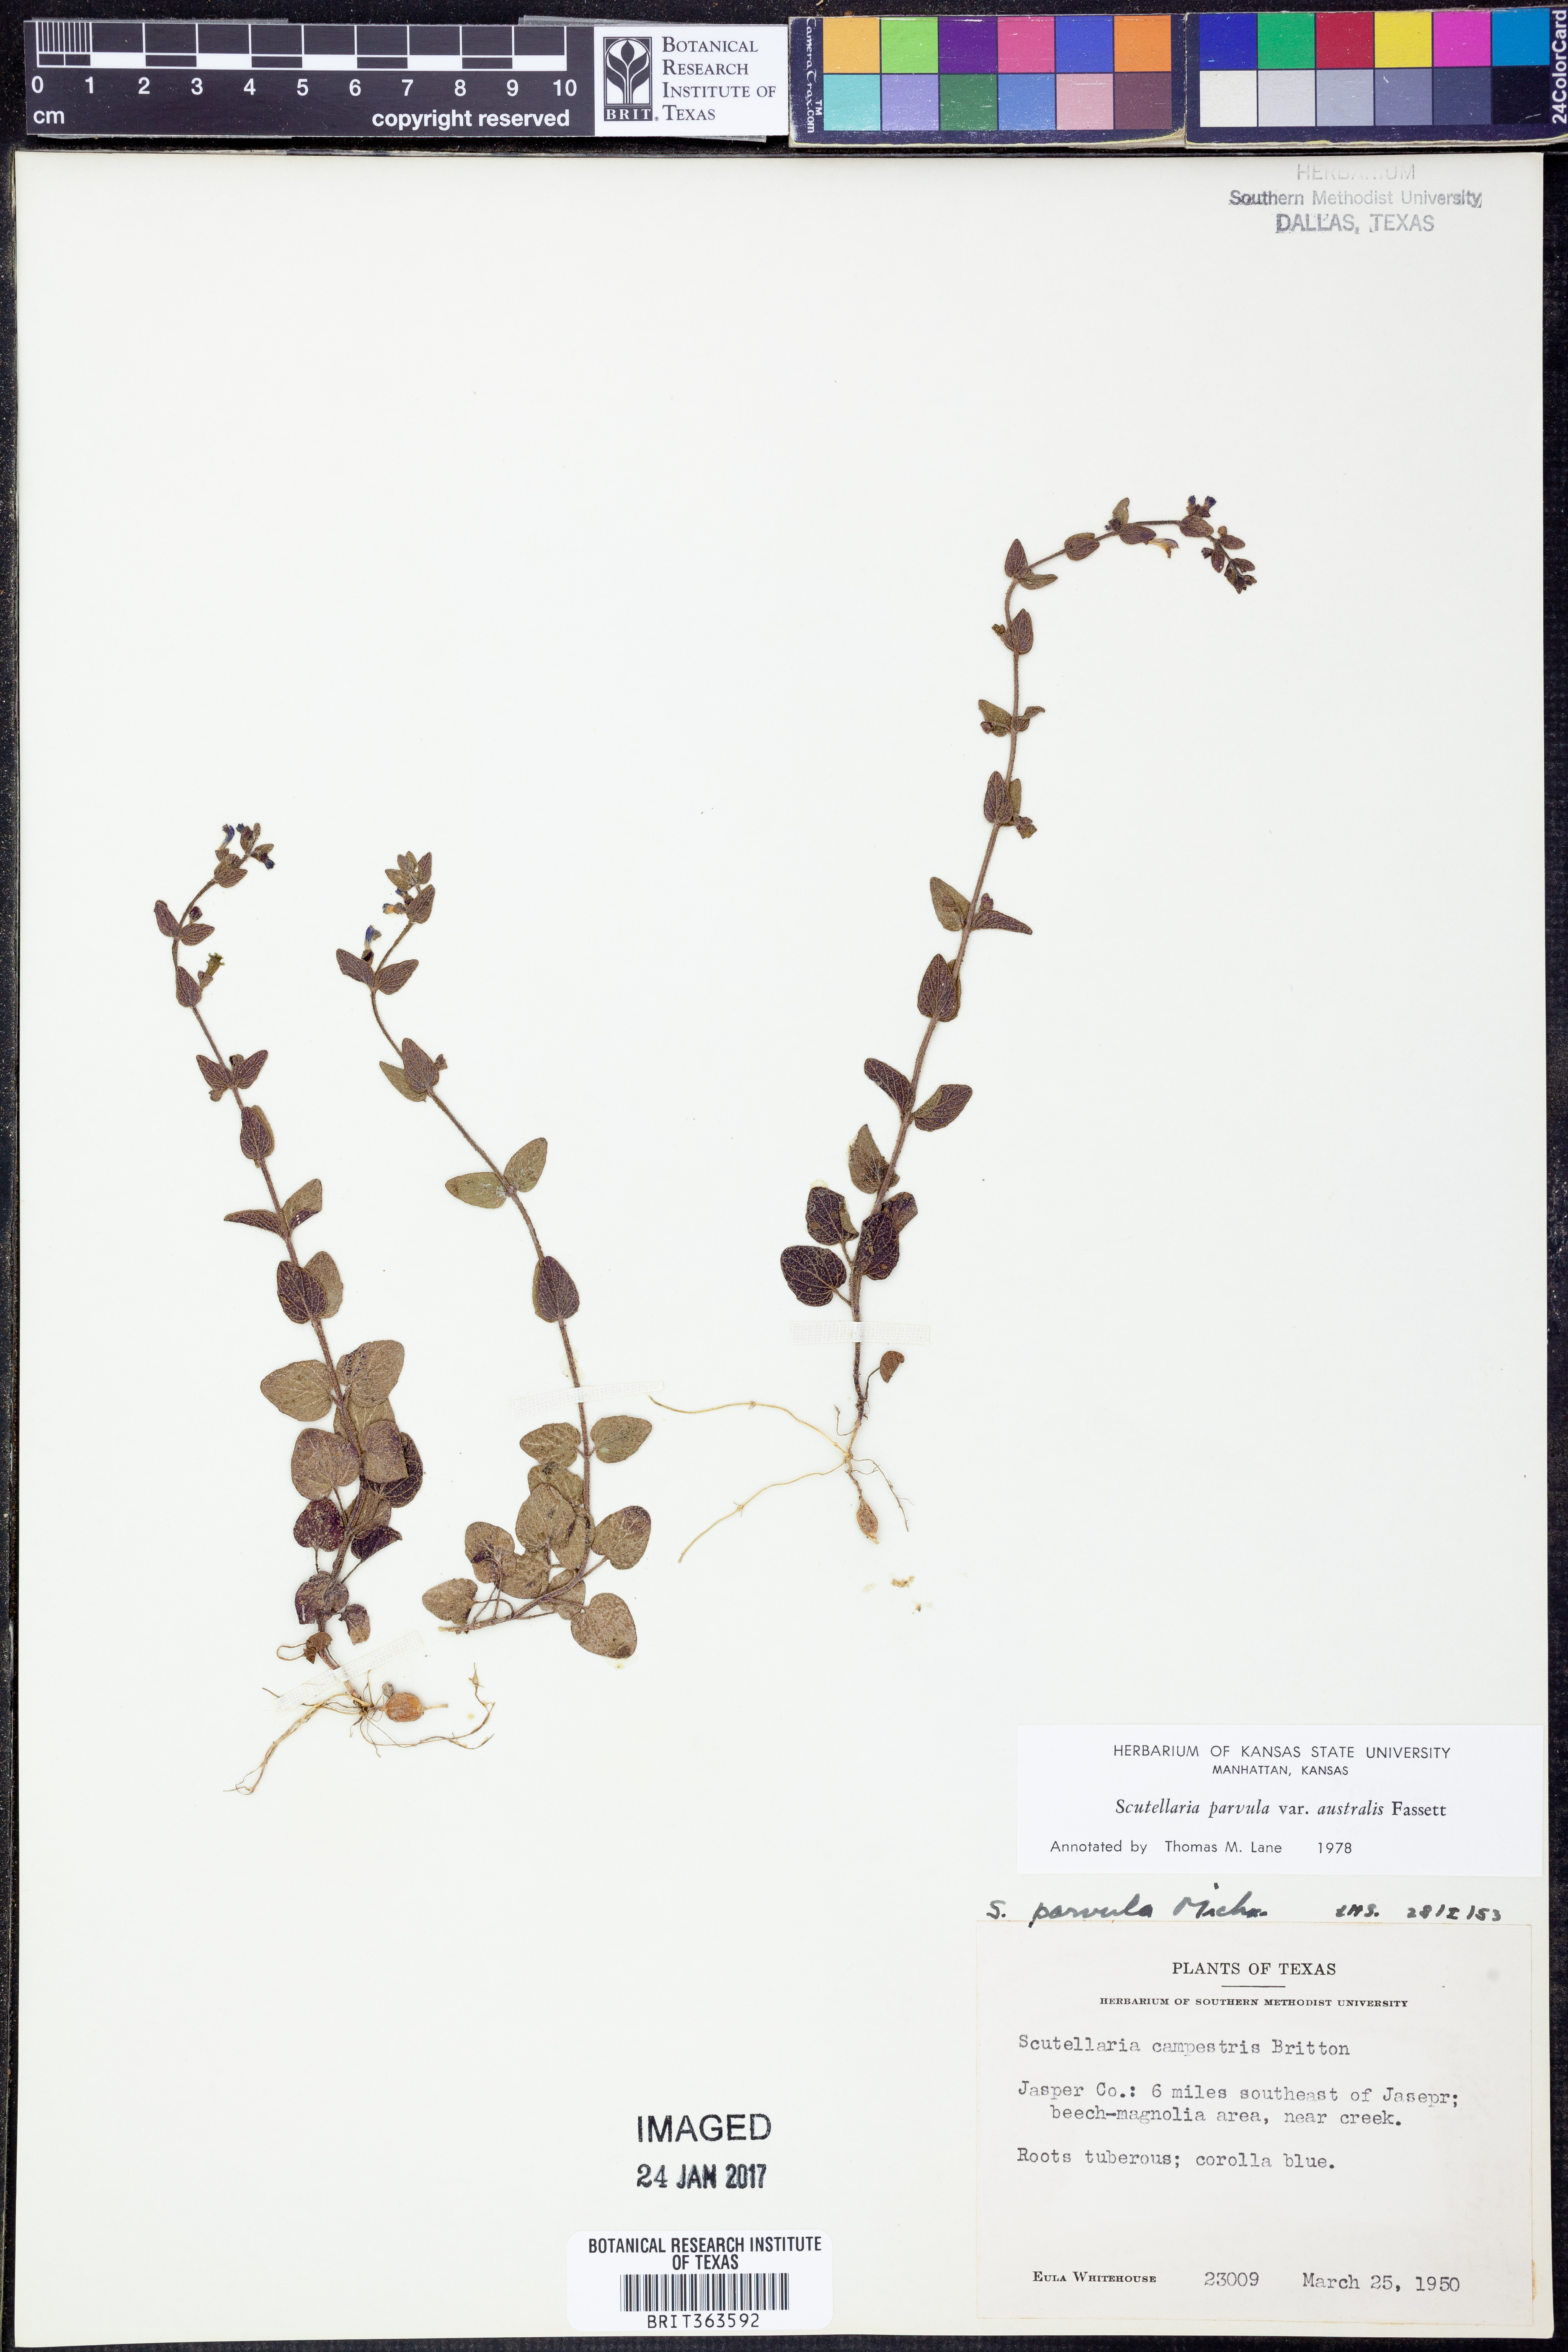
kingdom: Plantae
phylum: Tracheophyta
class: Magnoliopsida
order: Lamiales
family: Lamiaceae
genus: Scutellaria
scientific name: Scutellaria parvula
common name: Little scullcap
